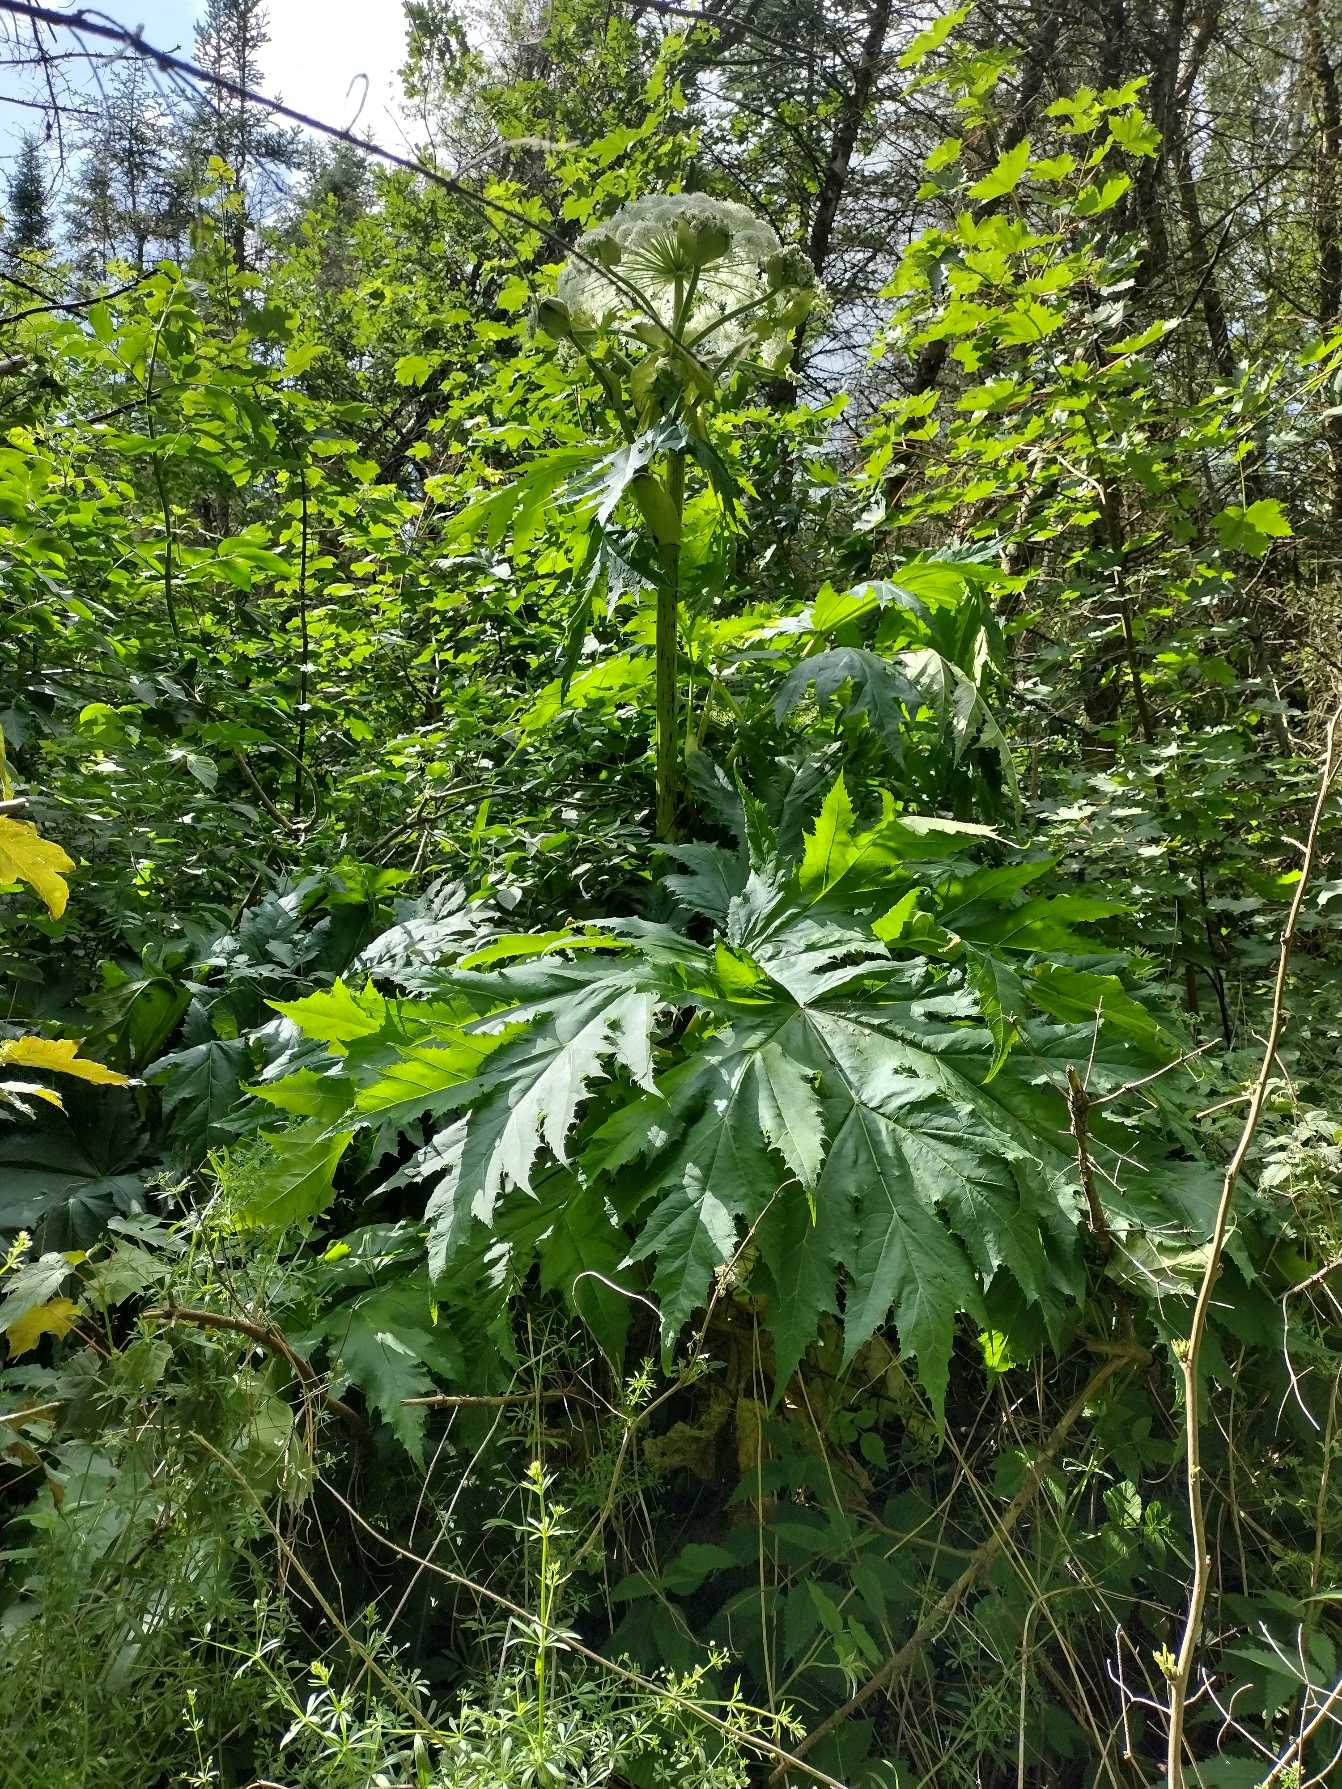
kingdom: Plantae
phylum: Tracheophyta
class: Magnoliopsida
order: Apiales
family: Apiaceae
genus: Heracleum
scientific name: Heracleum mantegazzianum
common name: Kæmpe-bjørneklo
